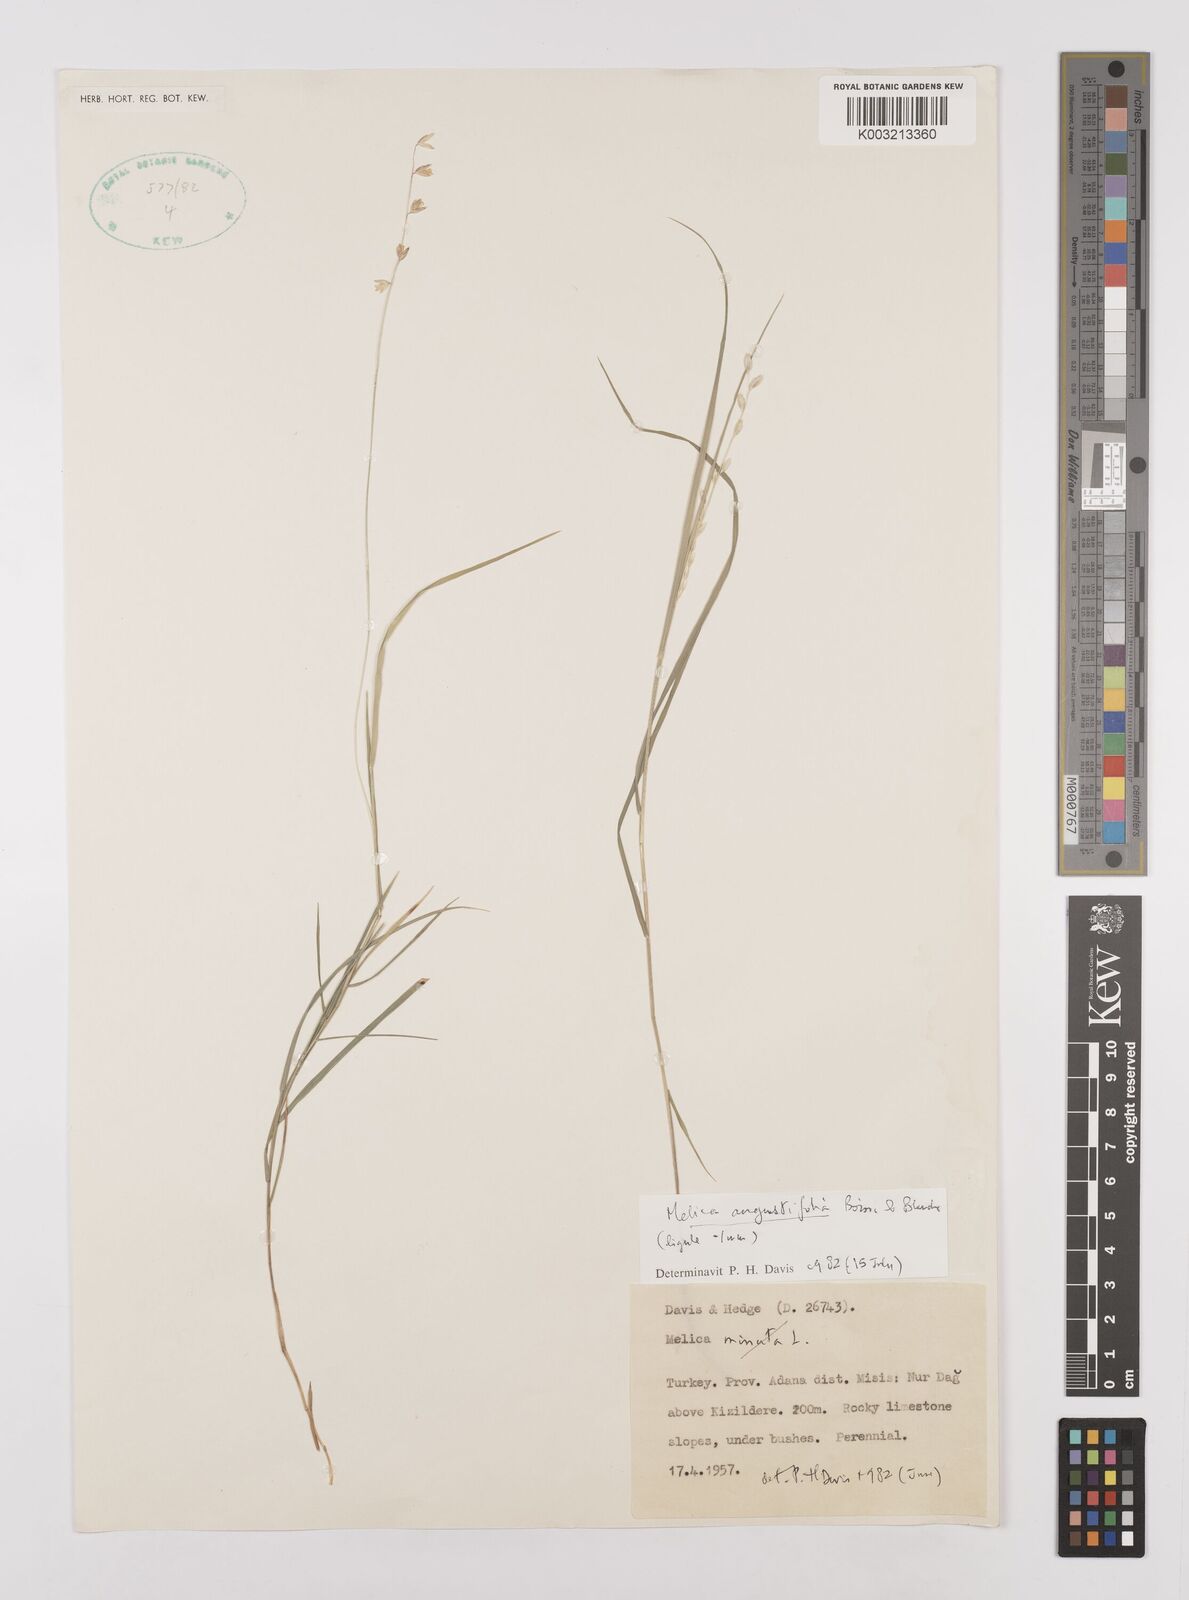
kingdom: Plantae
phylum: Tracheophyta
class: Liliopsida
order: Poales
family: Poaceae
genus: Melica
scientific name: Melica
